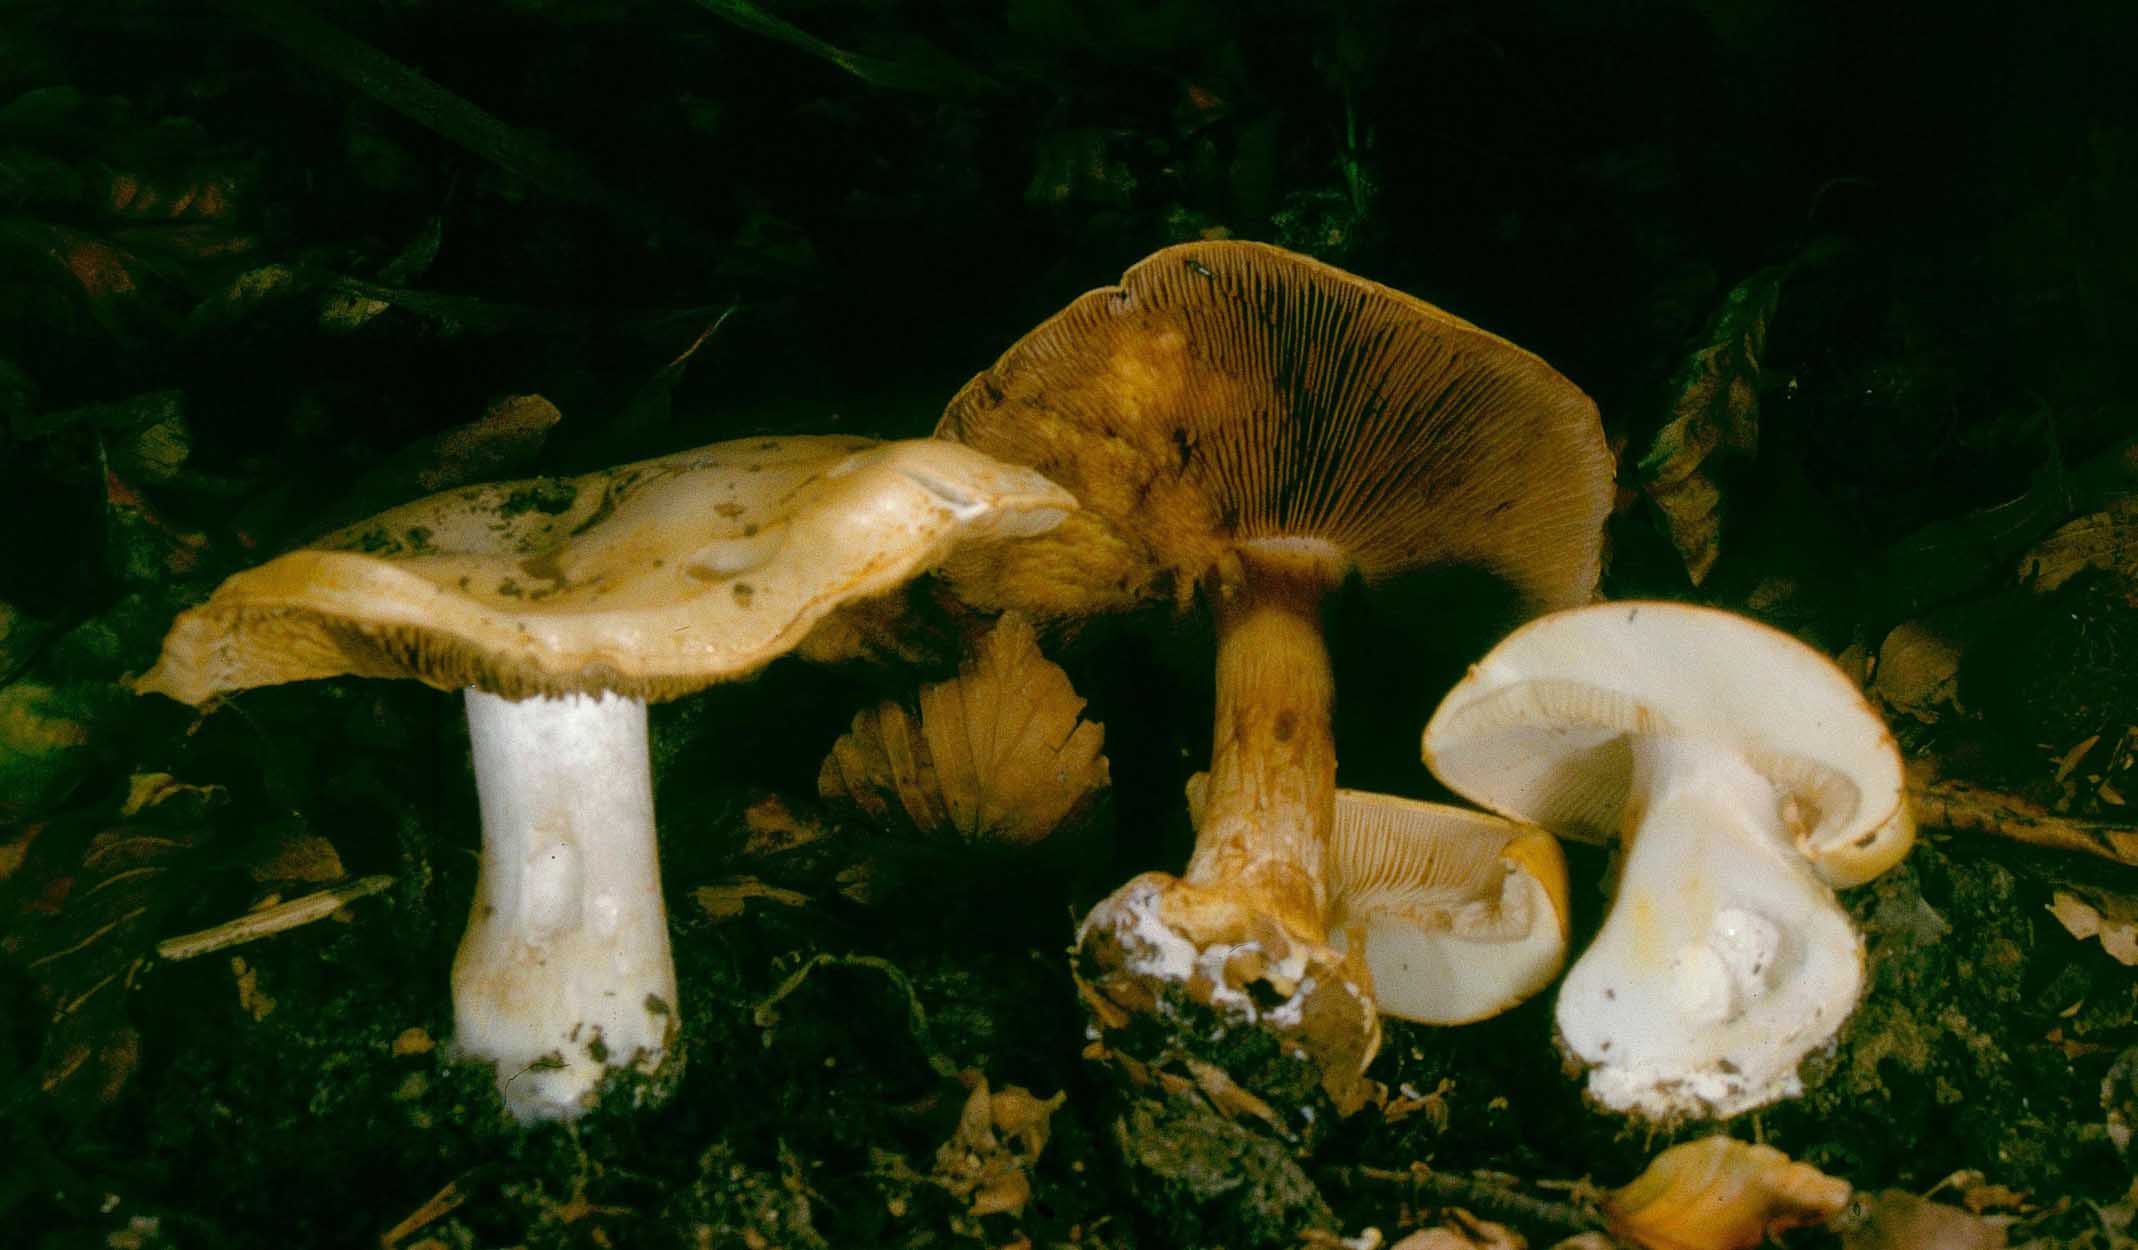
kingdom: Fungi
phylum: Basidiomycota
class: Agaricomycetes
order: Agaricales
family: Cortinariaceae
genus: Phlegmacium
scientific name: Phlegmacium rhizophorum
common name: finkornet slørhat
